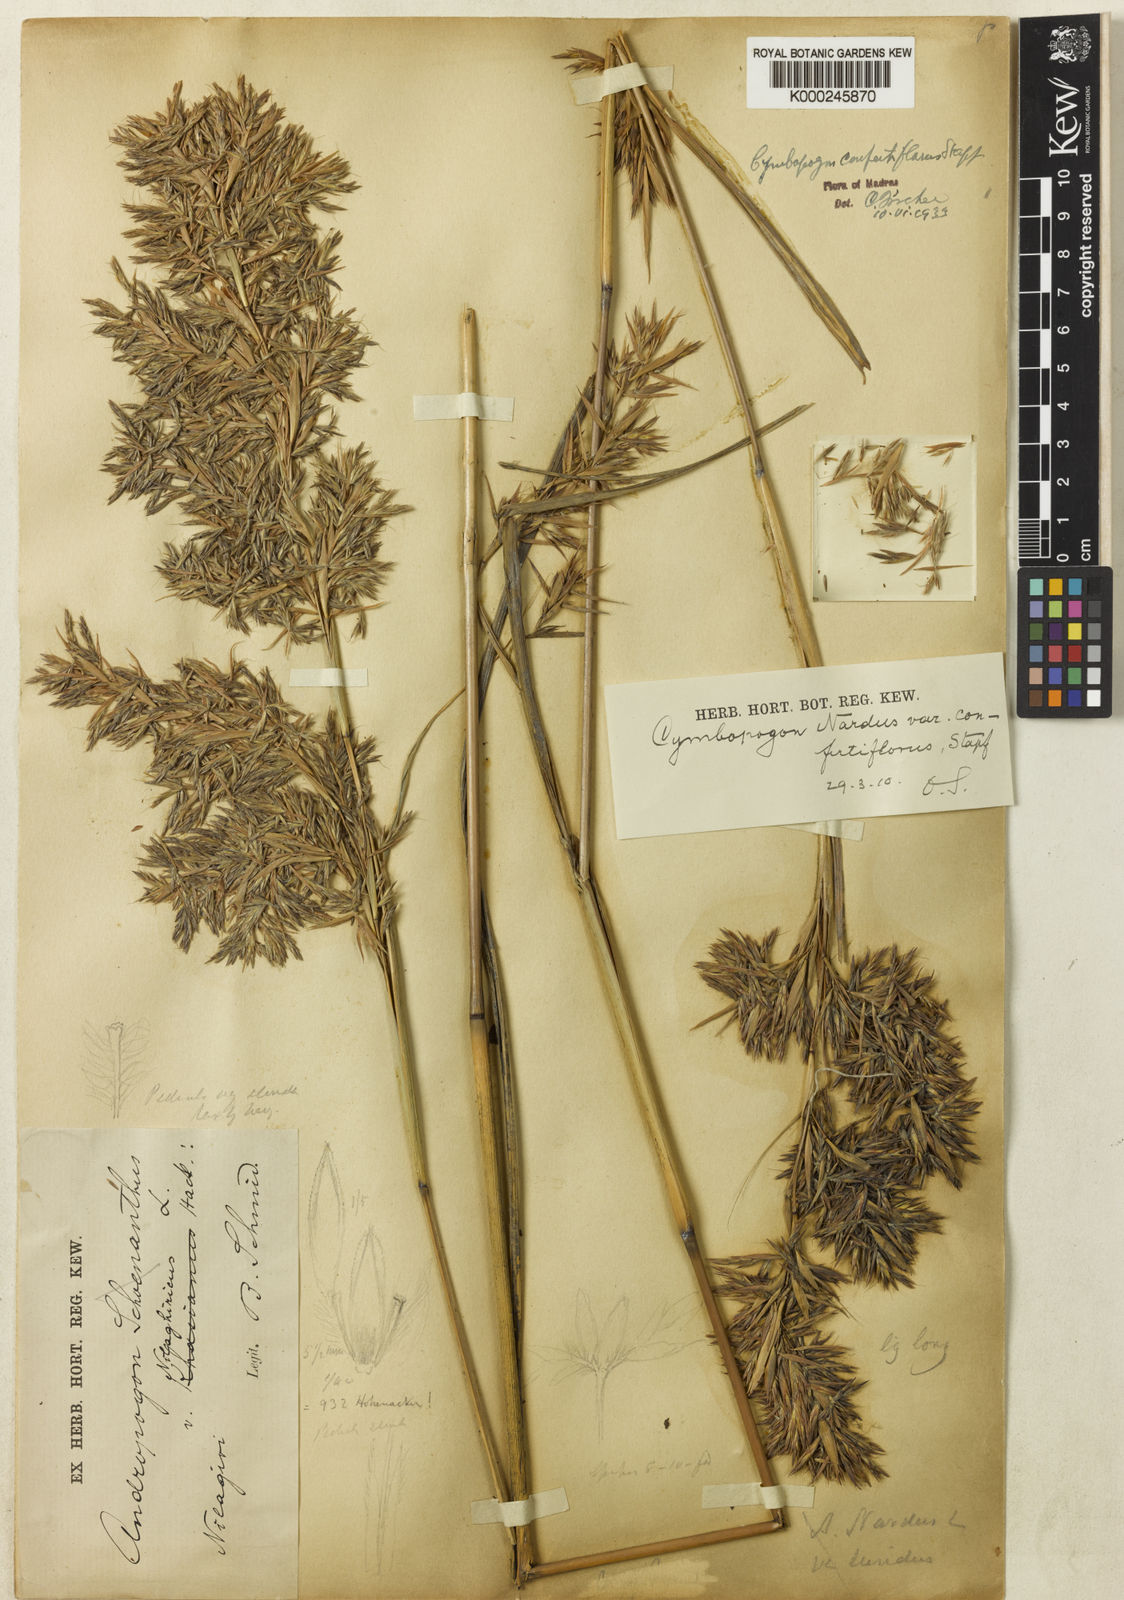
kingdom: Plantae
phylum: Tracheophyta
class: Liliopsida
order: Poales
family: Poaceae
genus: Cymbopogon
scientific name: Cymbopogon nardus
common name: Giant turpentine grass
